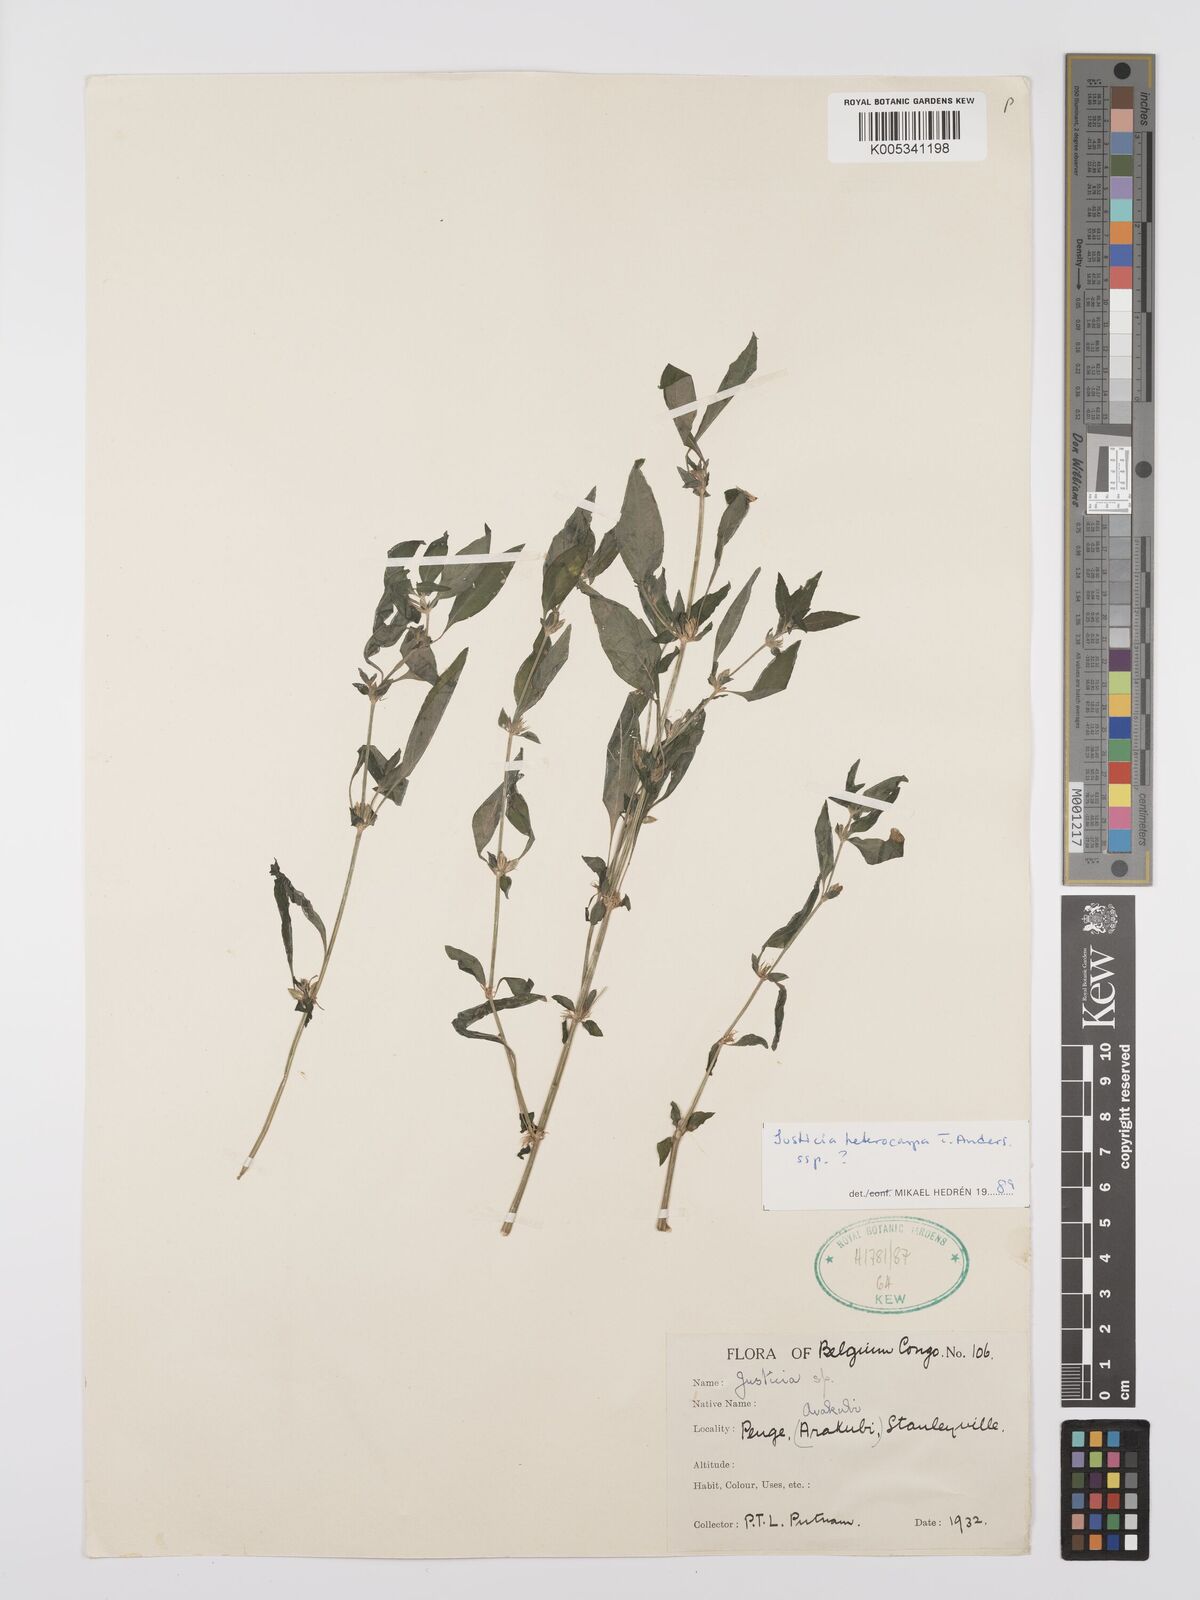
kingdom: Plantae
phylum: Tracheophyta
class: Magnoliopsida
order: Lamiales
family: Acanthaceae
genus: Justicia
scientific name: Justicia heterocarpa
